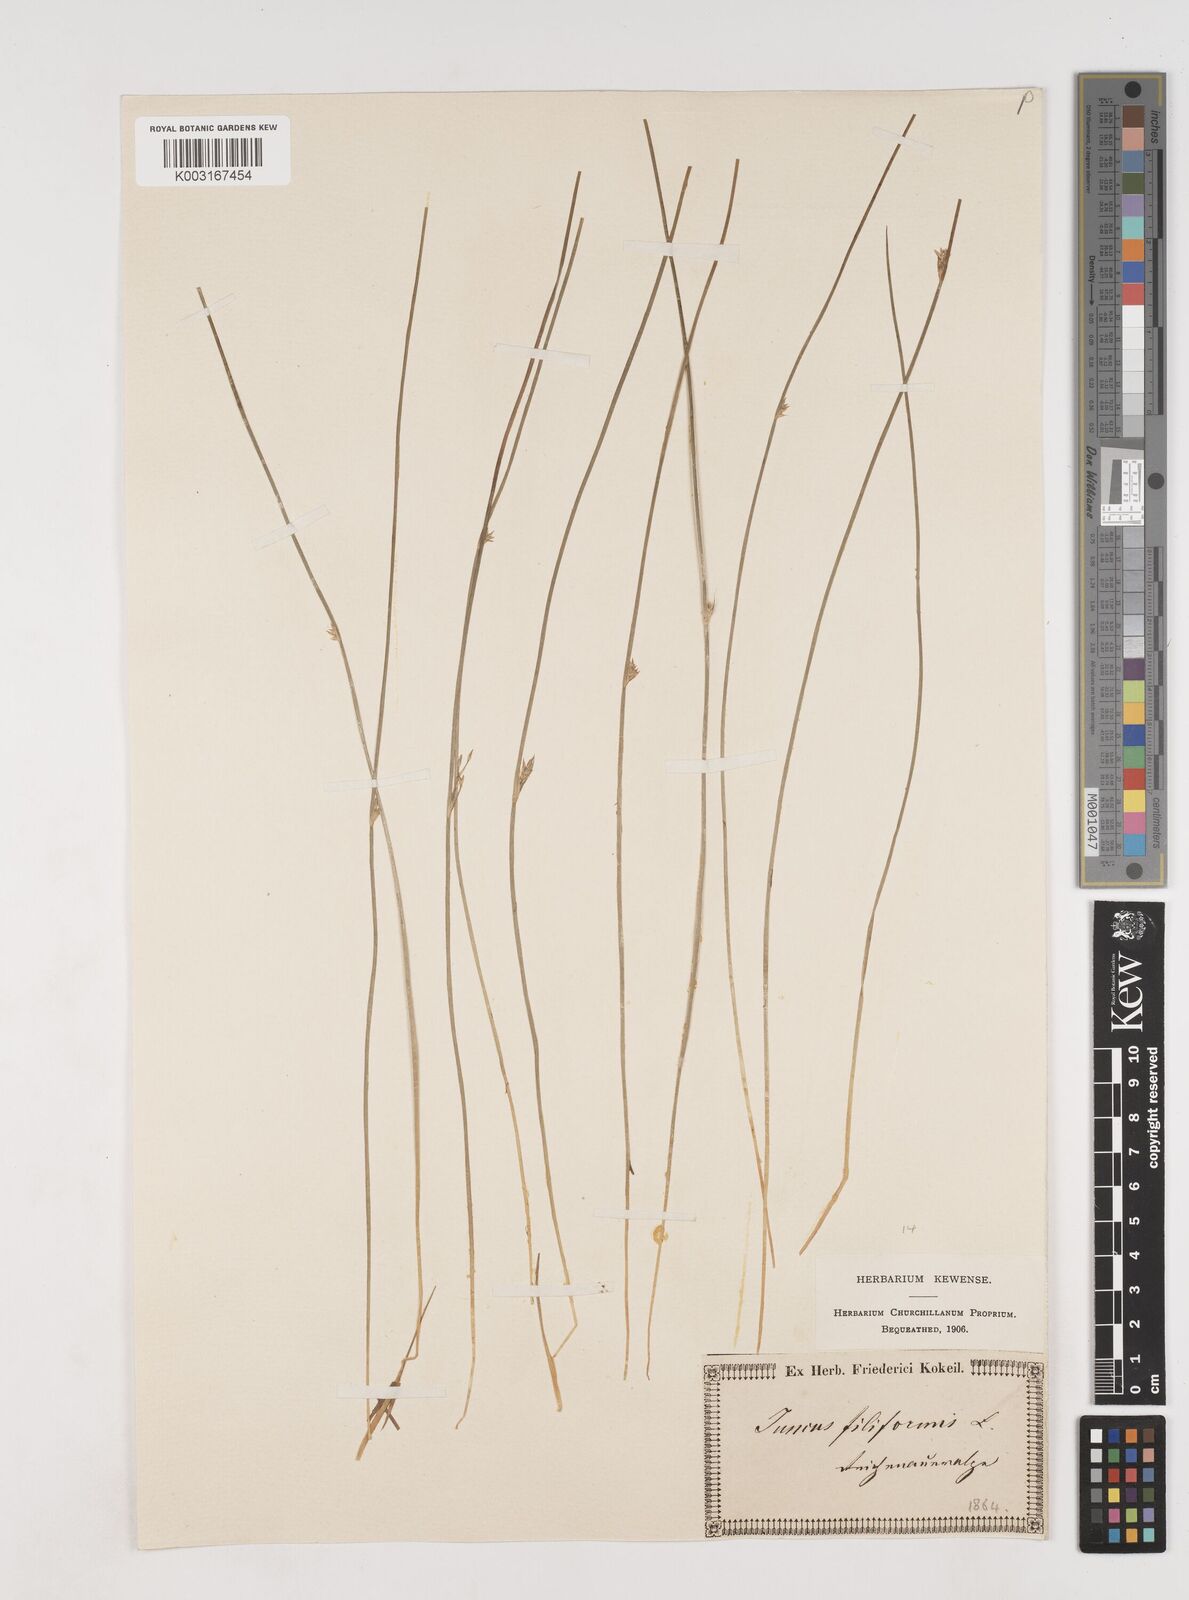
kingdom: Plantae
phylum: Tracheophyta
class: Liliopsida
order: Poales
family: Juncaceae
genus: Juncus
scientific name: Juncus filiformis
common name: Thread rush
